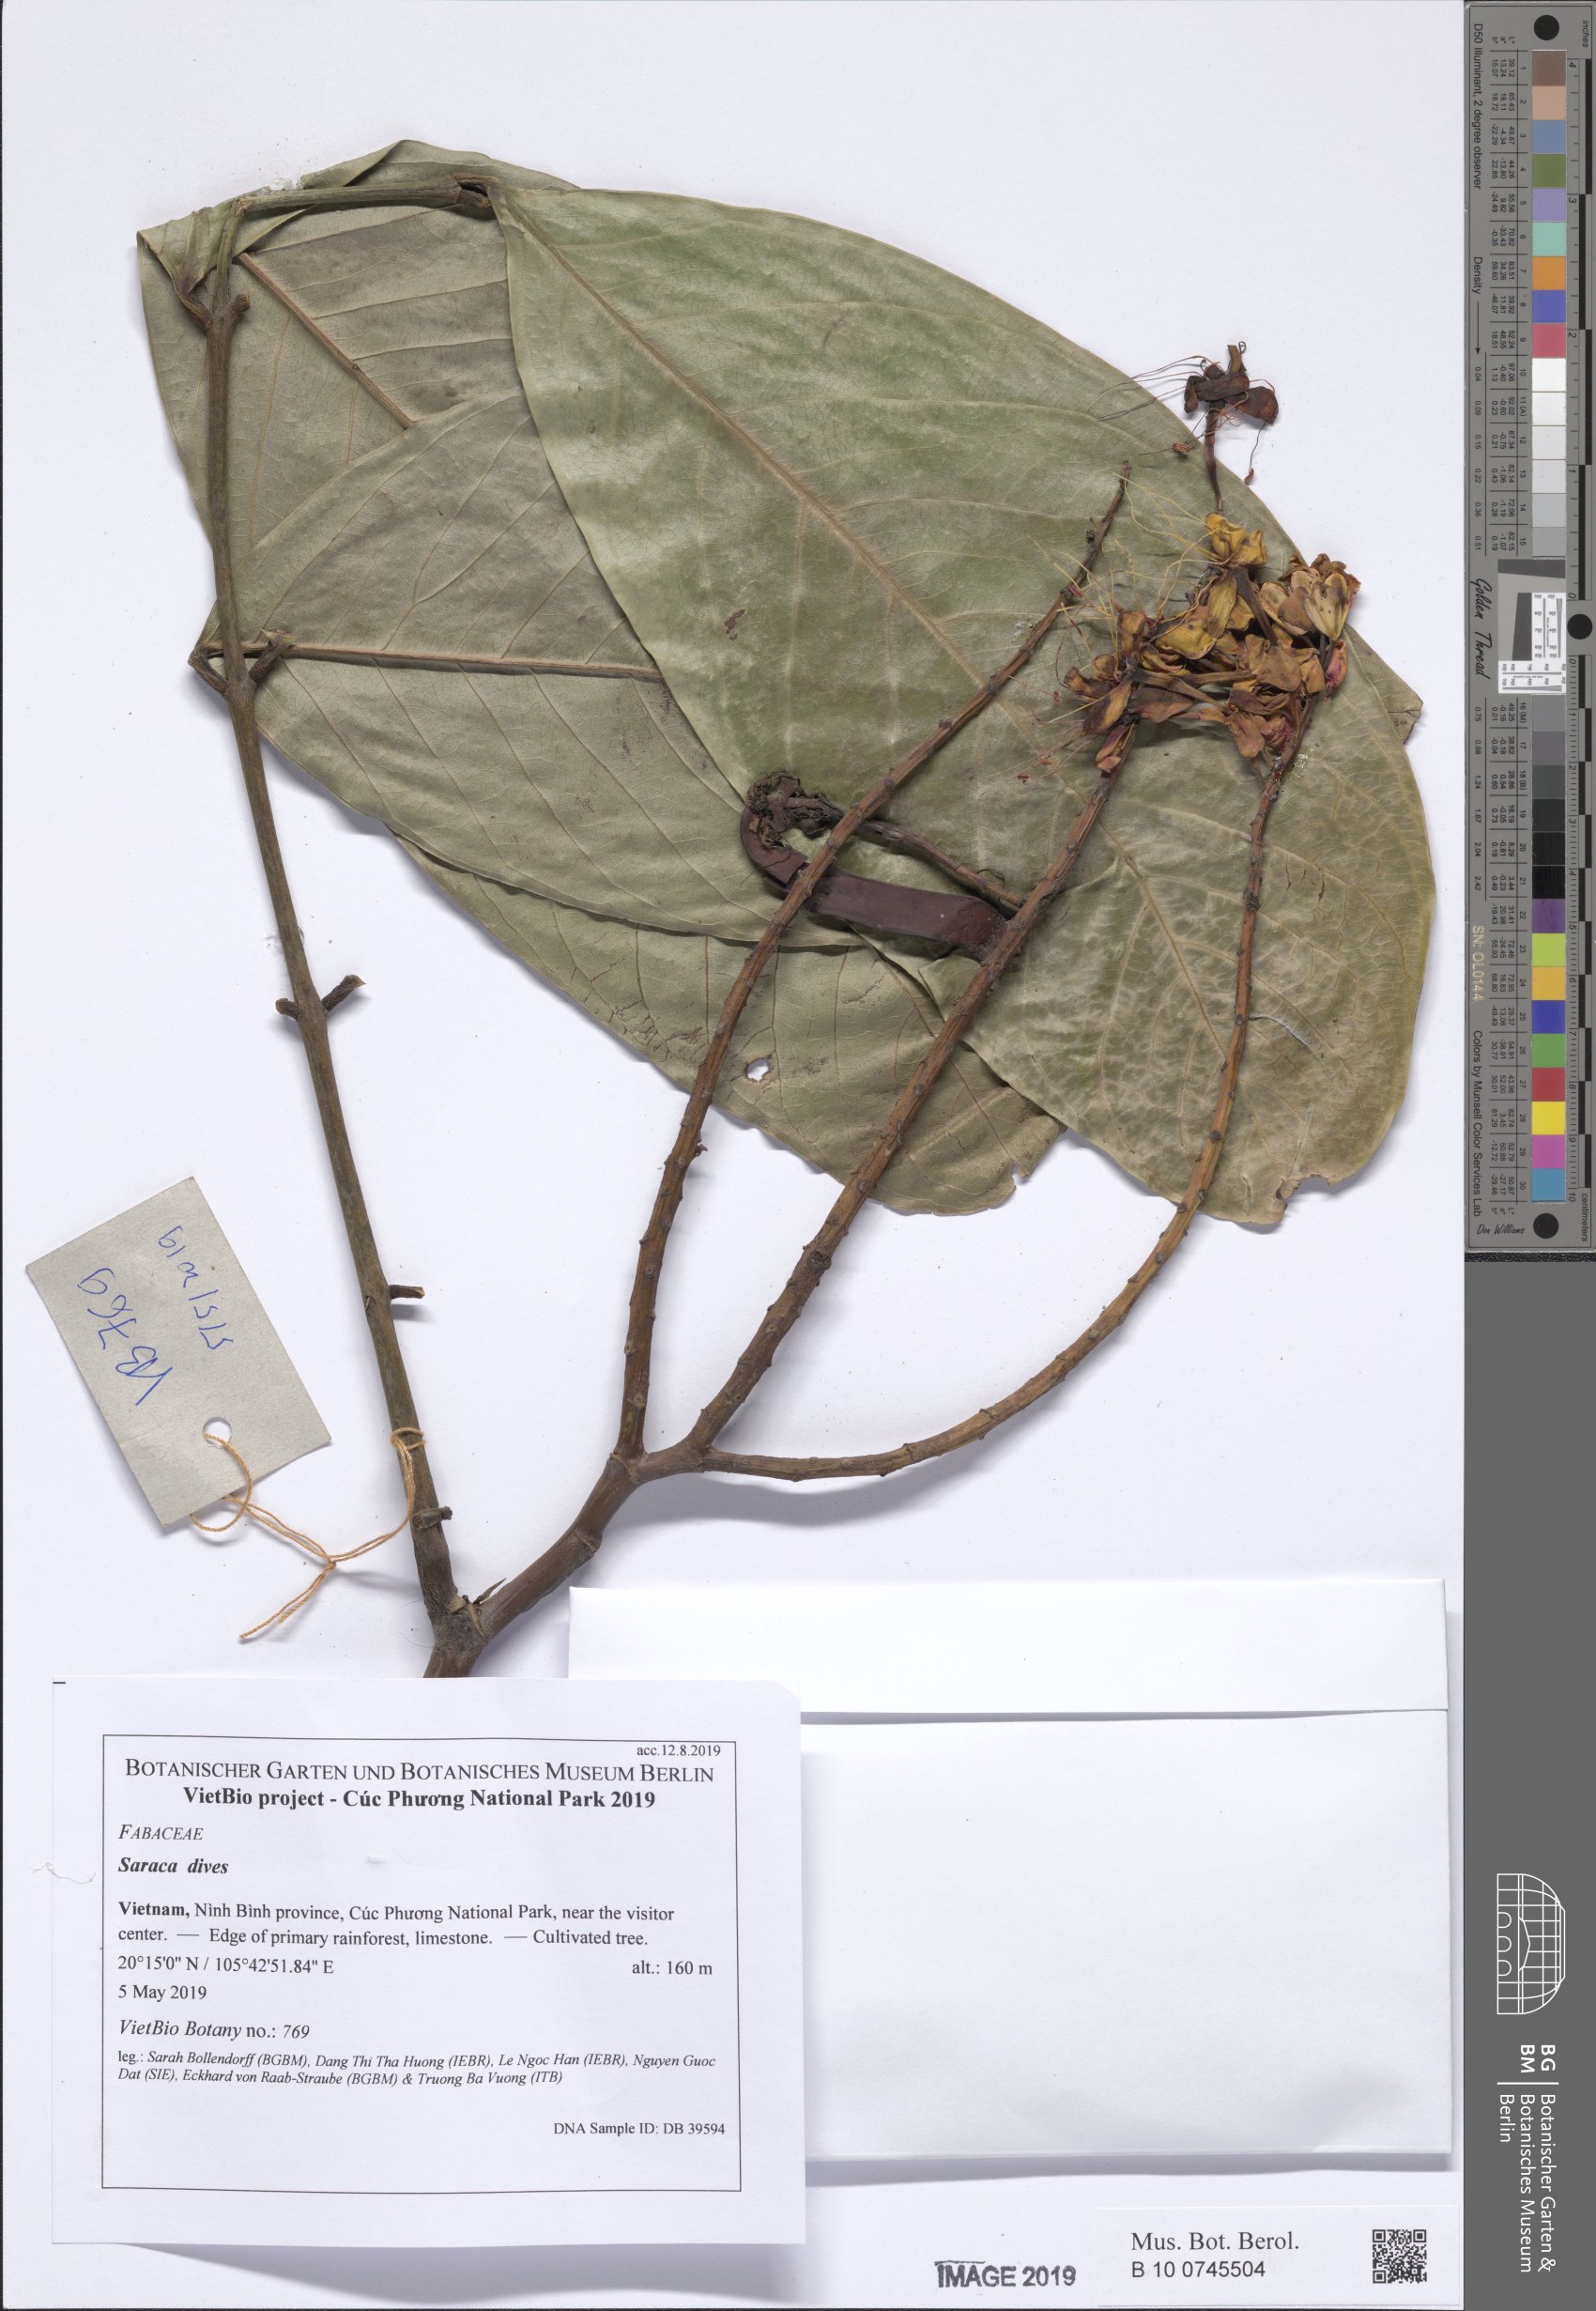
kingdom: Plantae
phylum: Tracheophyta
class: Magnoliopsida
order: Fabales
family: Fabaceae
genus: Saraca
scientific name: Saraca dives
